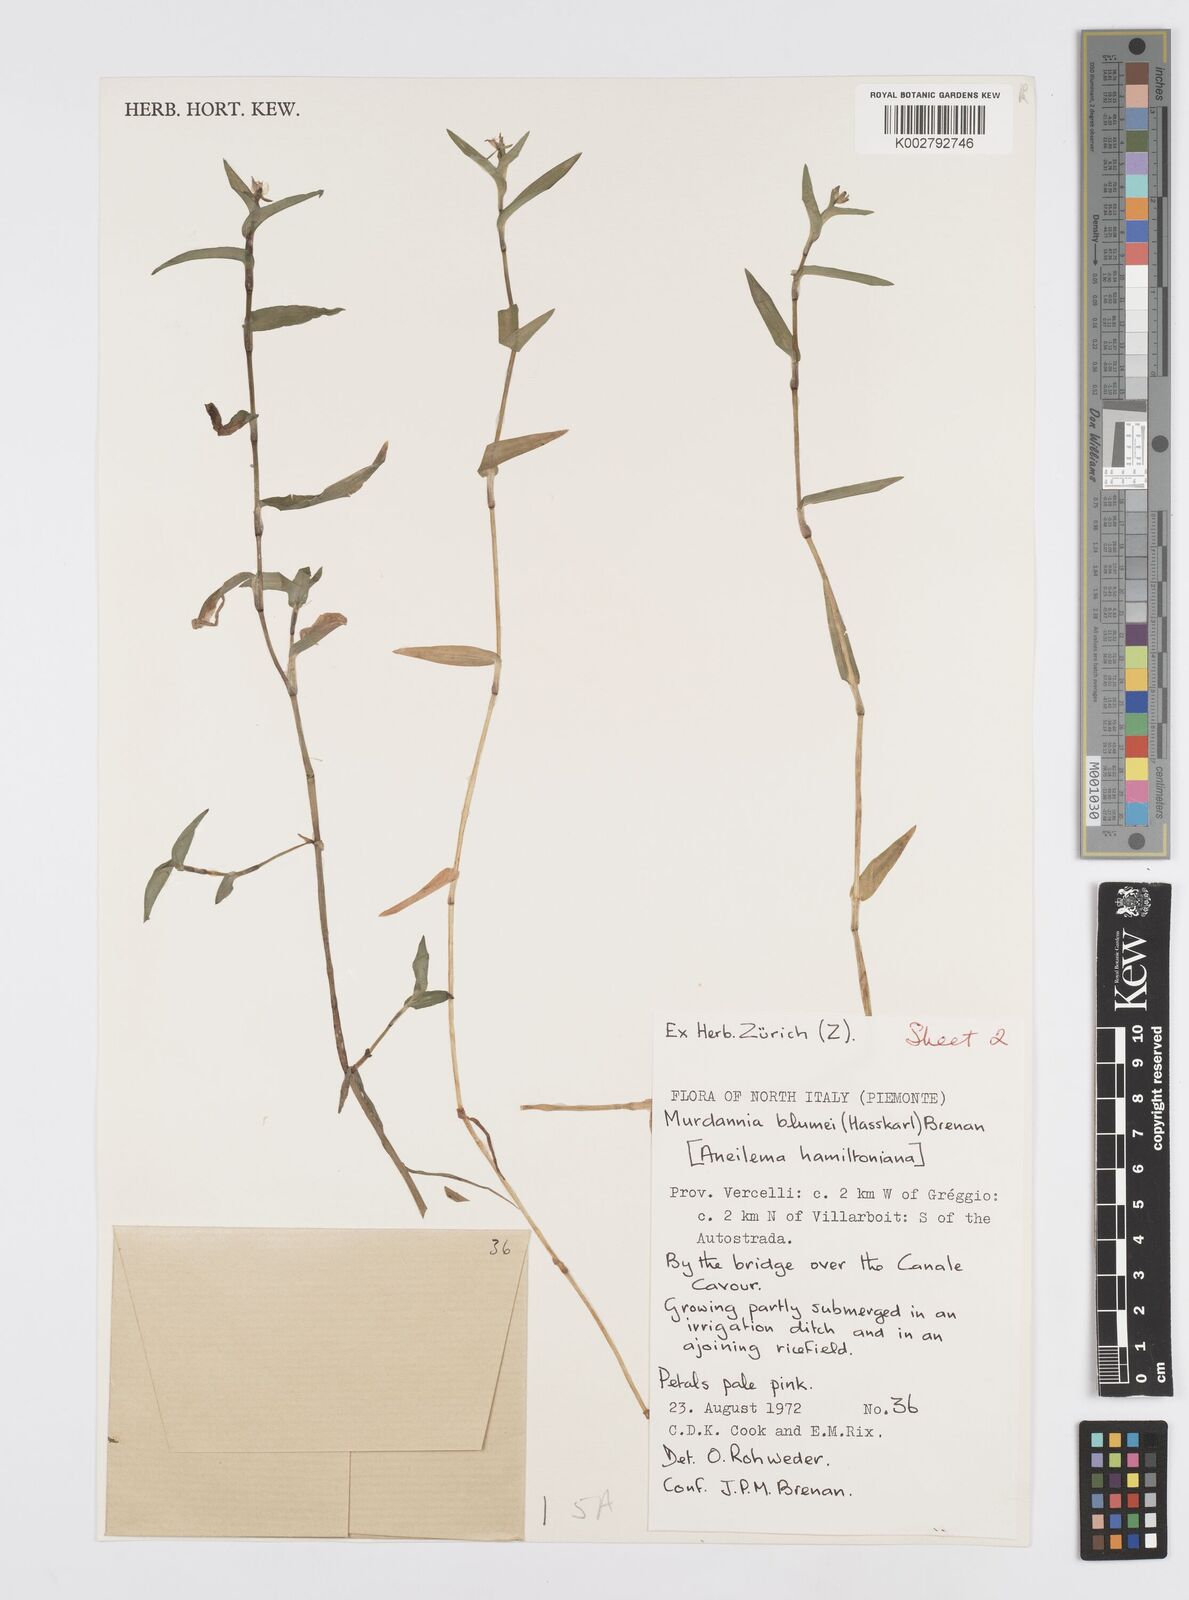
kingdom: Plantae
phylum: Tracheophyta
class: Liliopsida
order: Commelinales
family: Commelinaceae
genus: Murdannia
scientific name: Murdannia keisak
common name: Wartremoving herb
